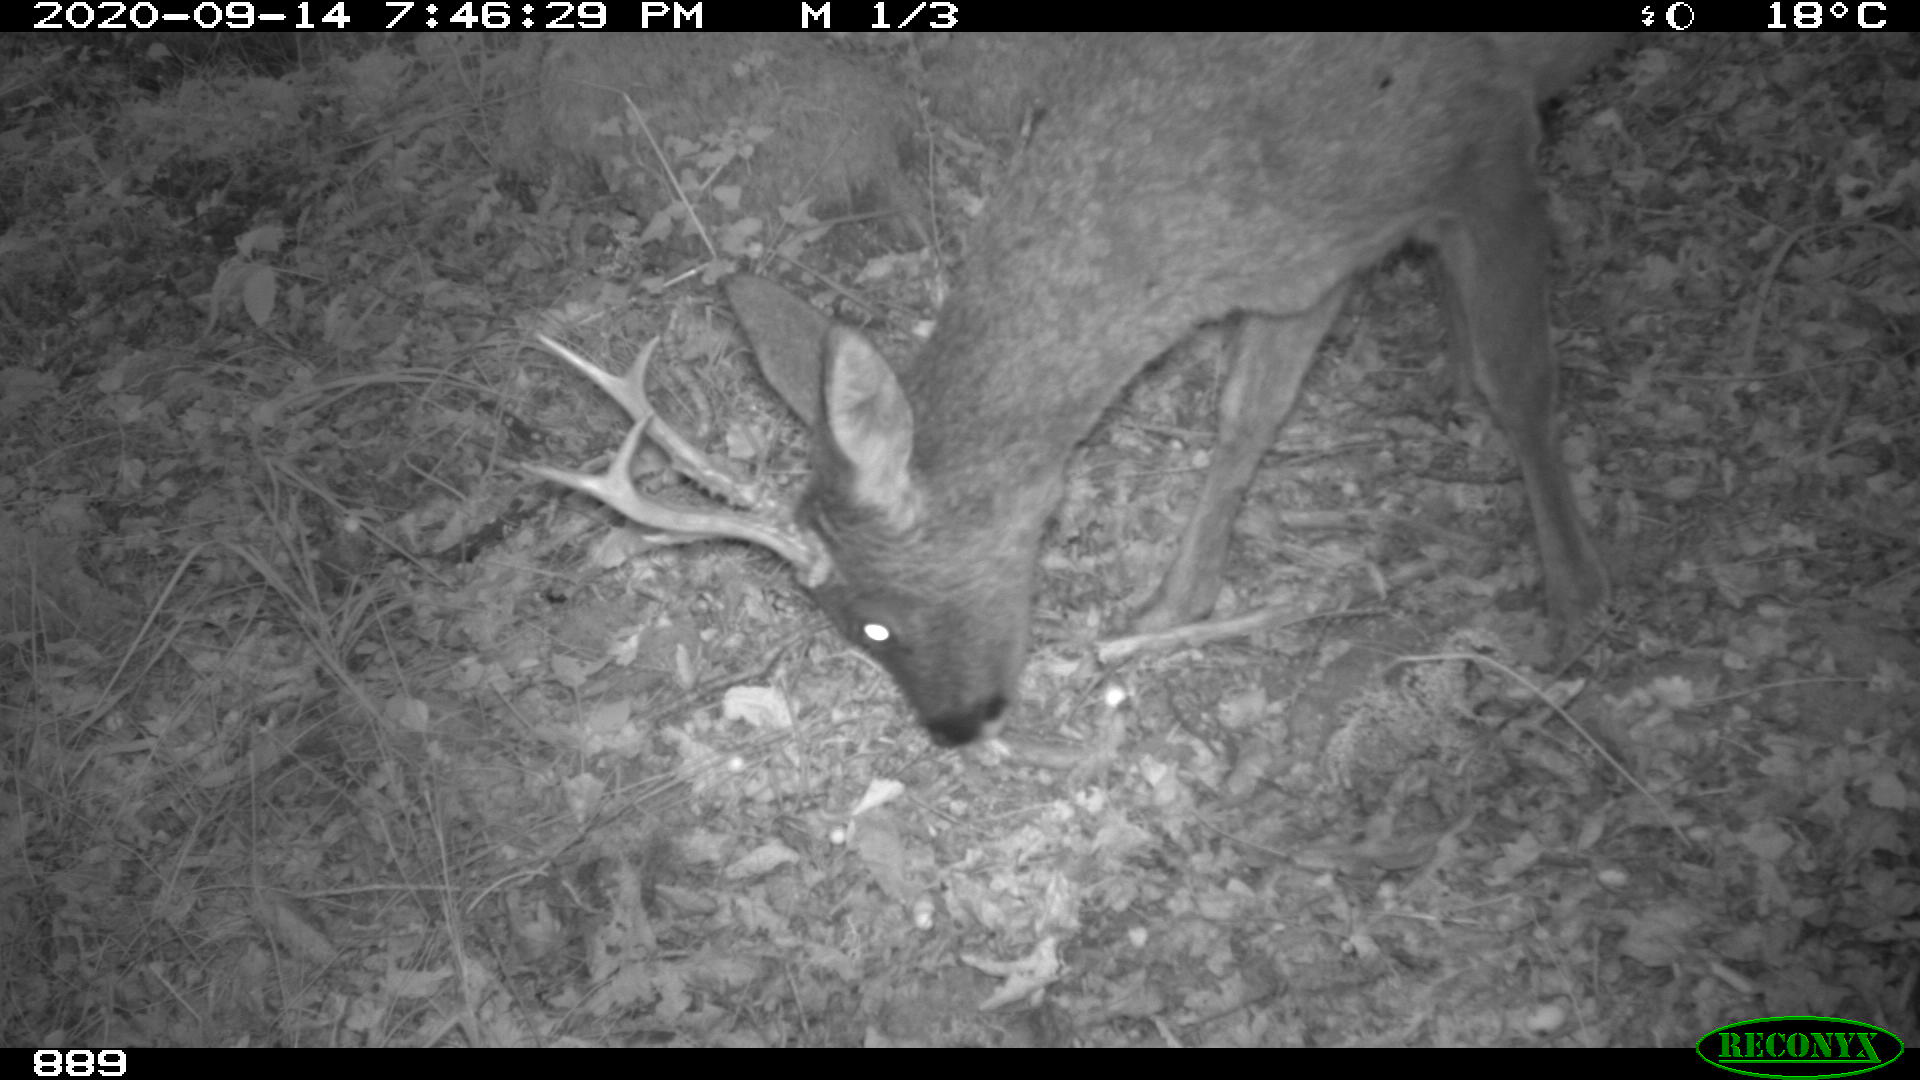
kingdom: Animalia
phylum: Chordata
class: Mammalia
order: Artiodactyla
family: Cervidae
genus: Capreolus
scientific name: Capreolus capreolus
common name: Western roe deer
